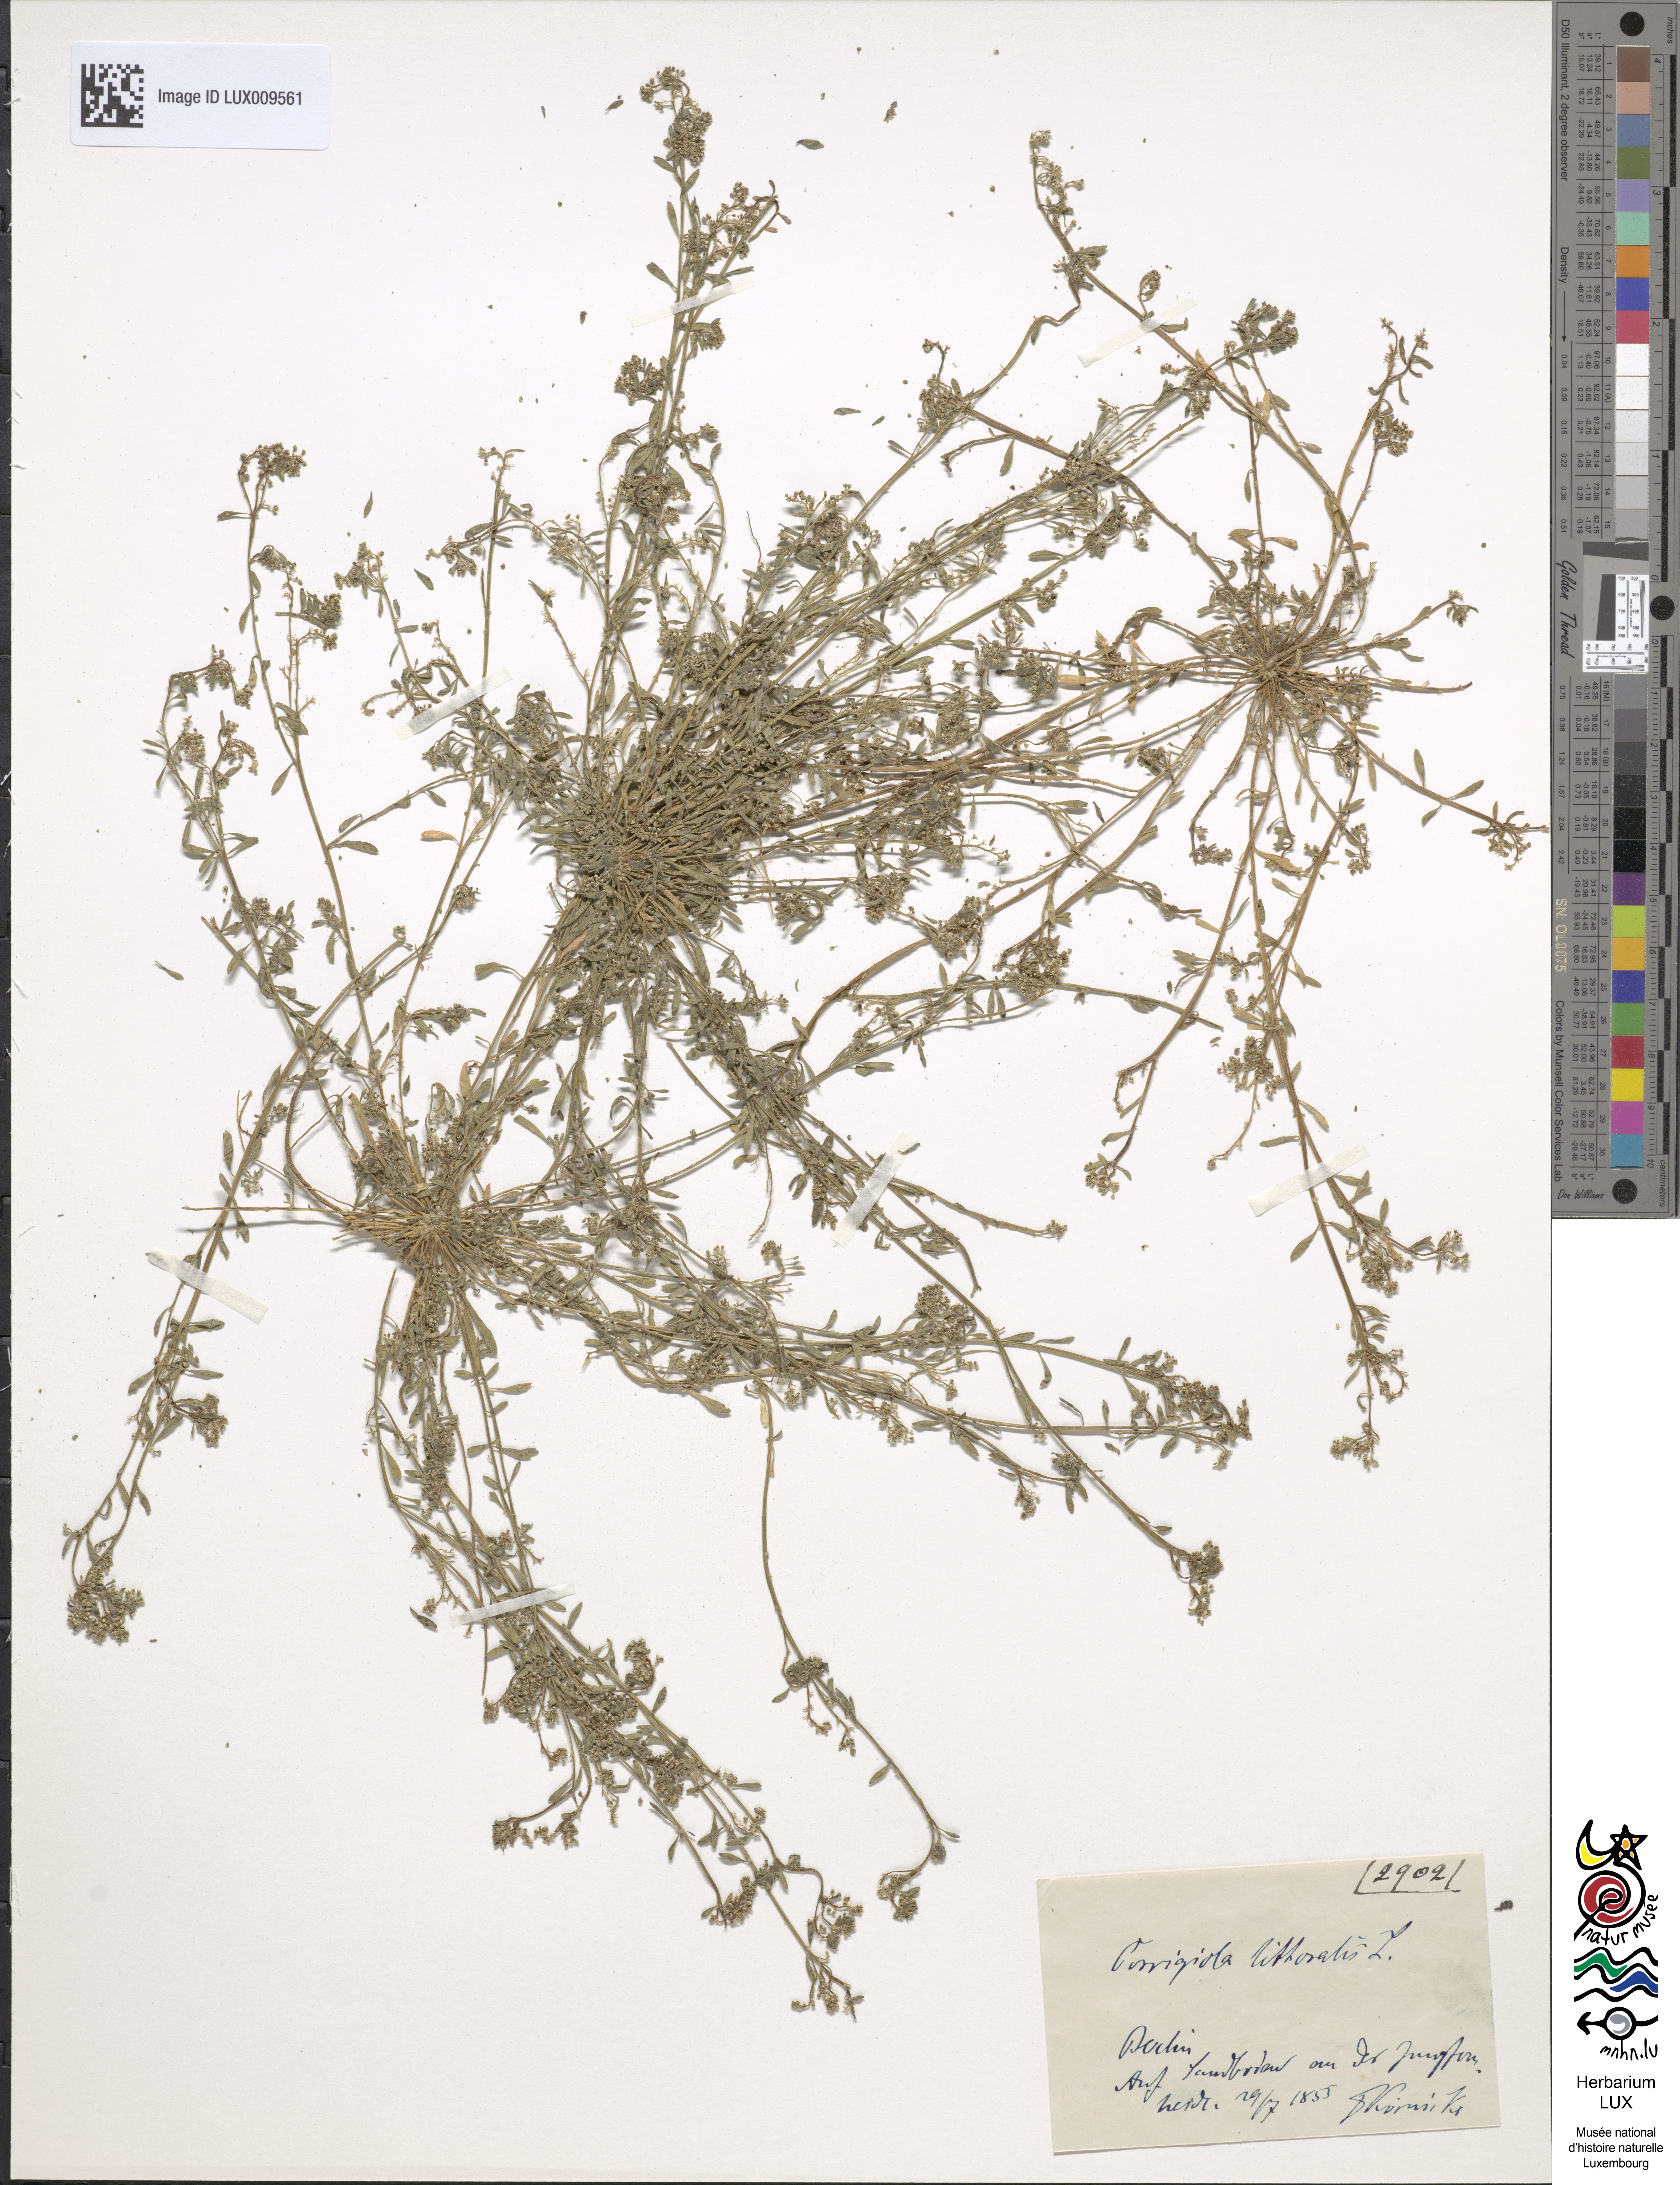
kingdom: Plantae
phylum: Tracheophyta
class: Magnoliopsida
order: Caryophyllales
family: Caryophyllaceae
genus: Corrigiola
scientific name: Corrigiola litoralis
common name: Strapwort
